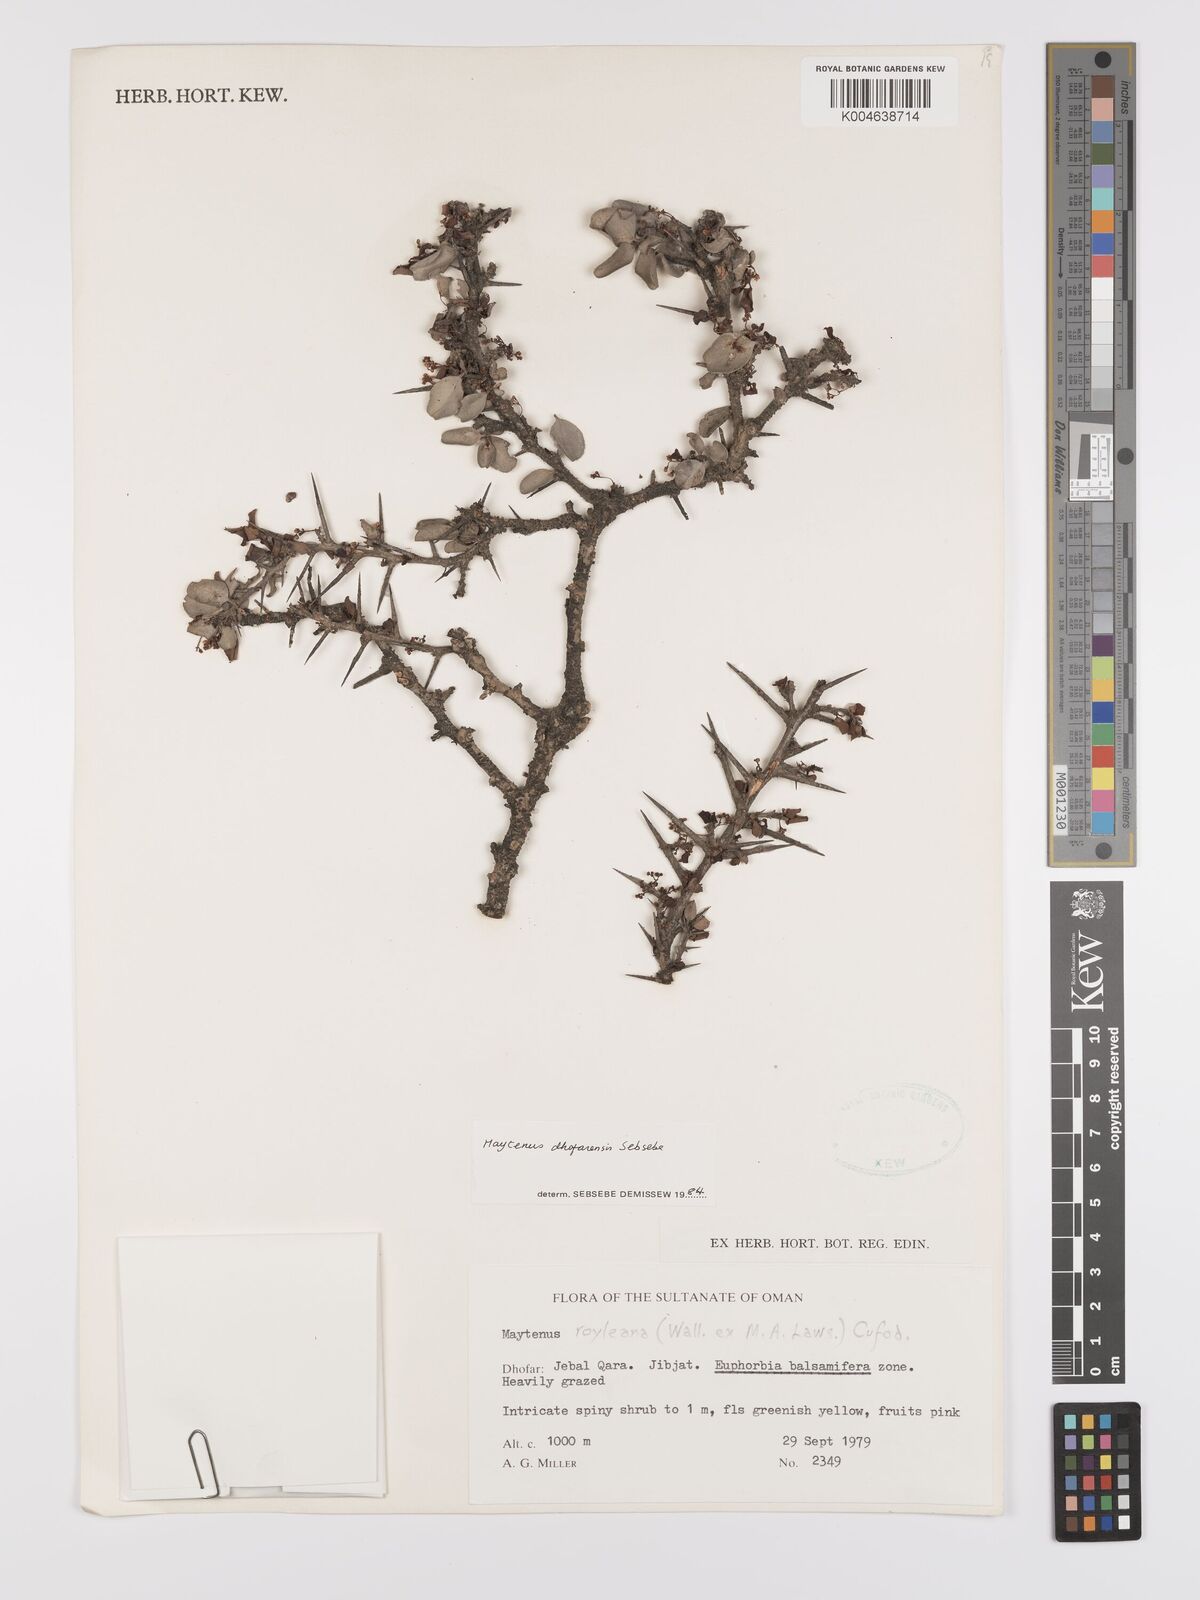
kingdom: Plantae
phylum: Tracheophyta
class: Magnoliopsida
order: Celastrales
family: Celastraceae
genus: Gymnosporia
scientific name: Gymnosporia dhofarensis
